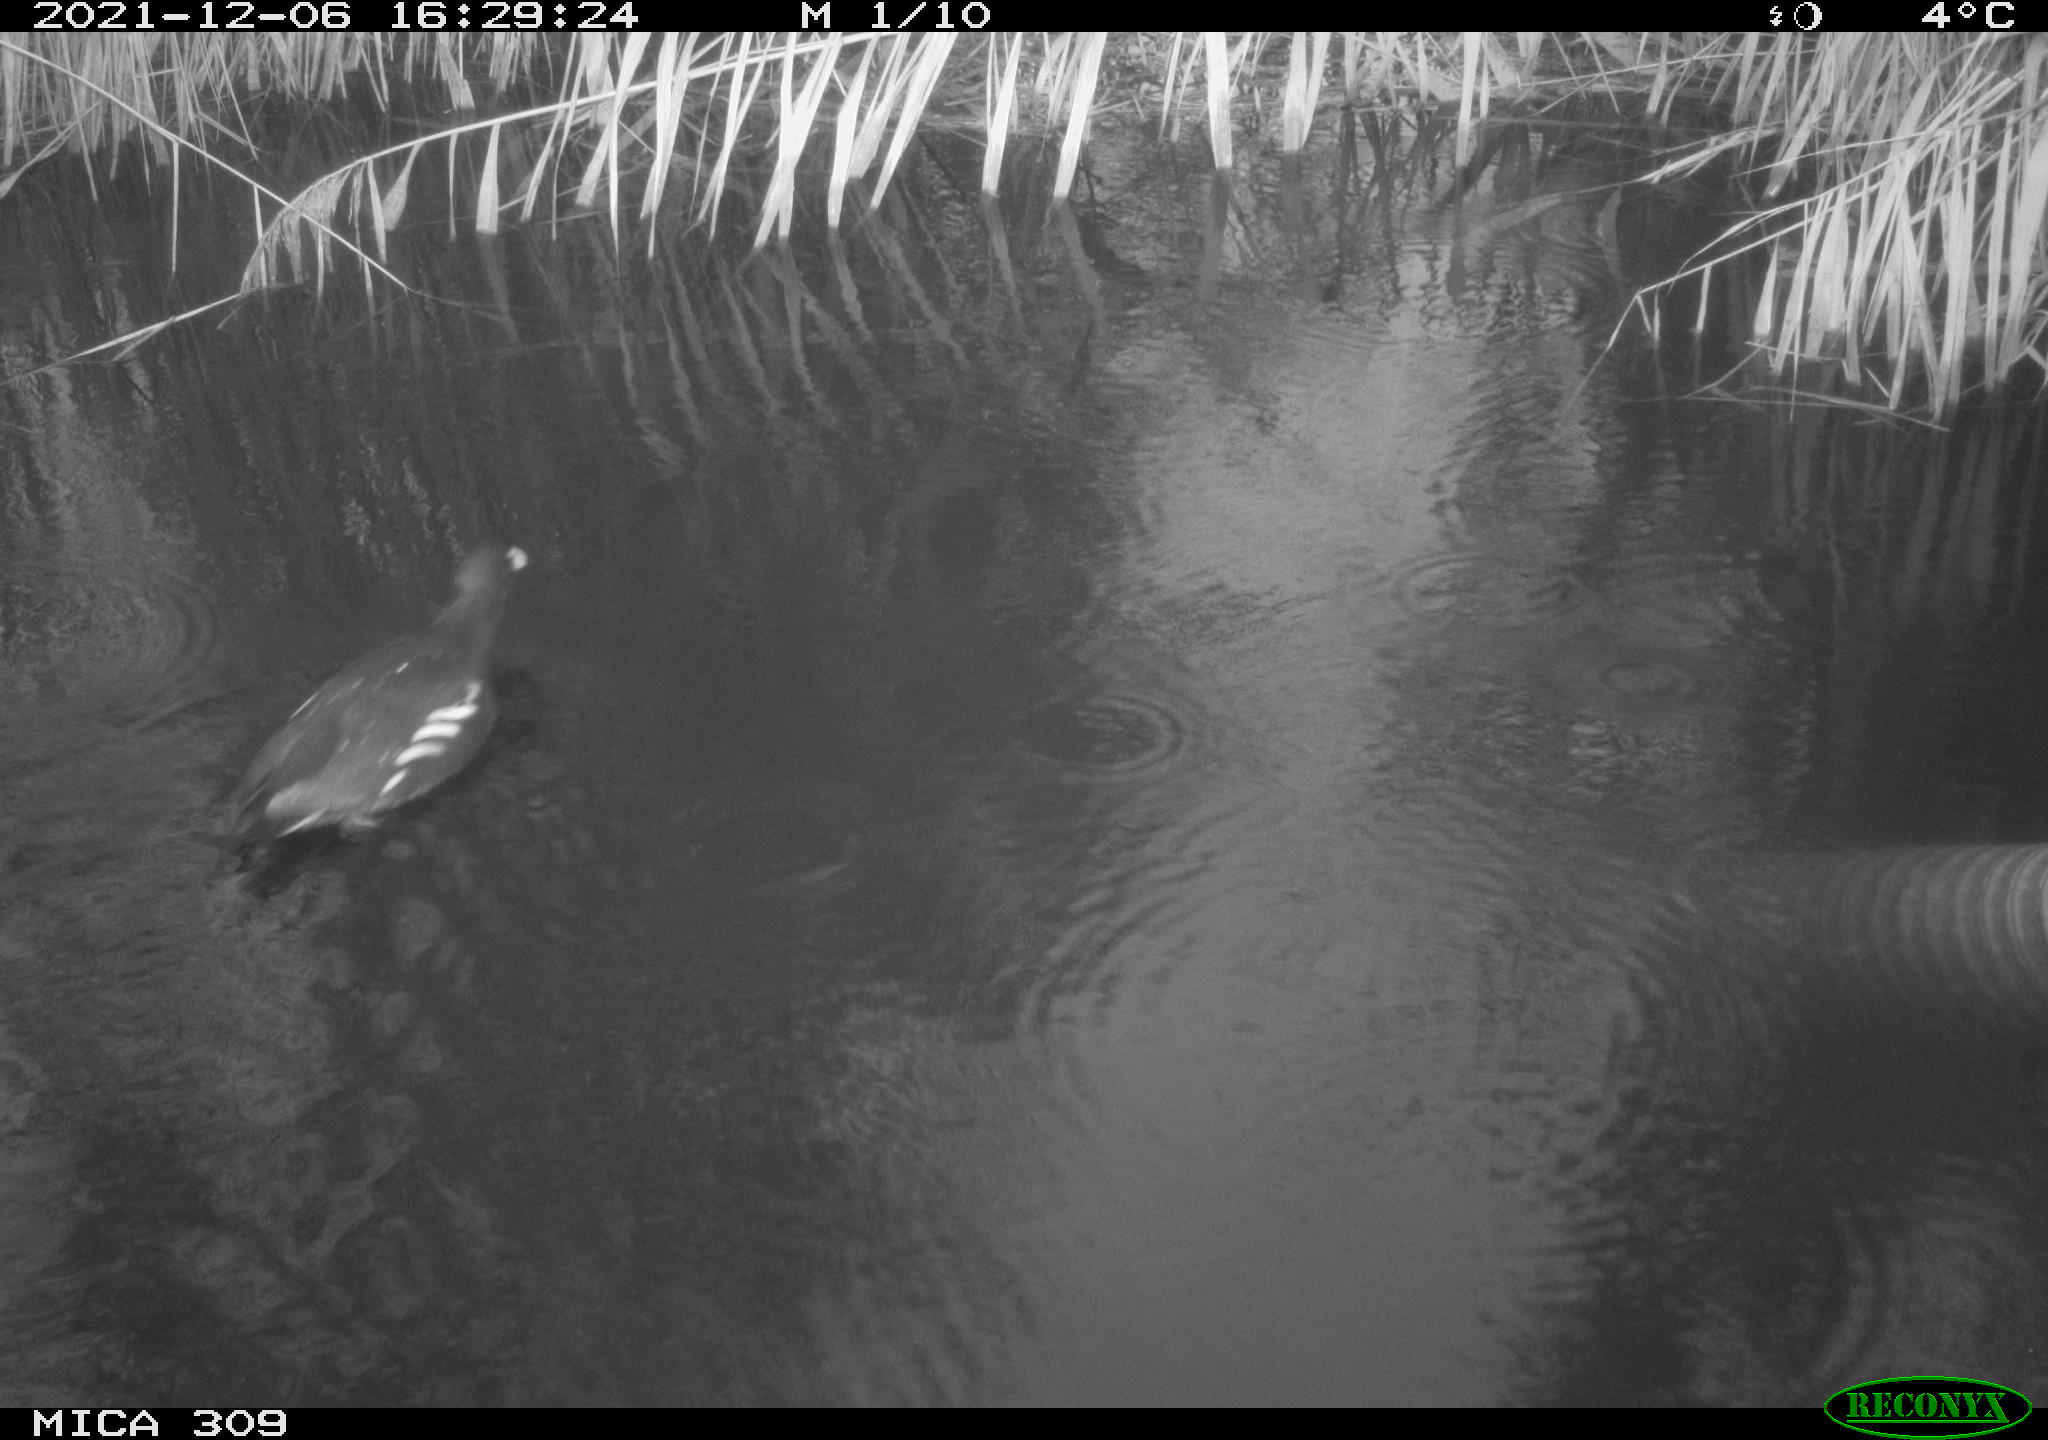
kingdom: Animalia
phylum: Chordata
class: Aves
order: Gruiformes
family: Rallidae
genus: Gallinula
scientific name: Gallinula chloropus
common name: Common moorhen
